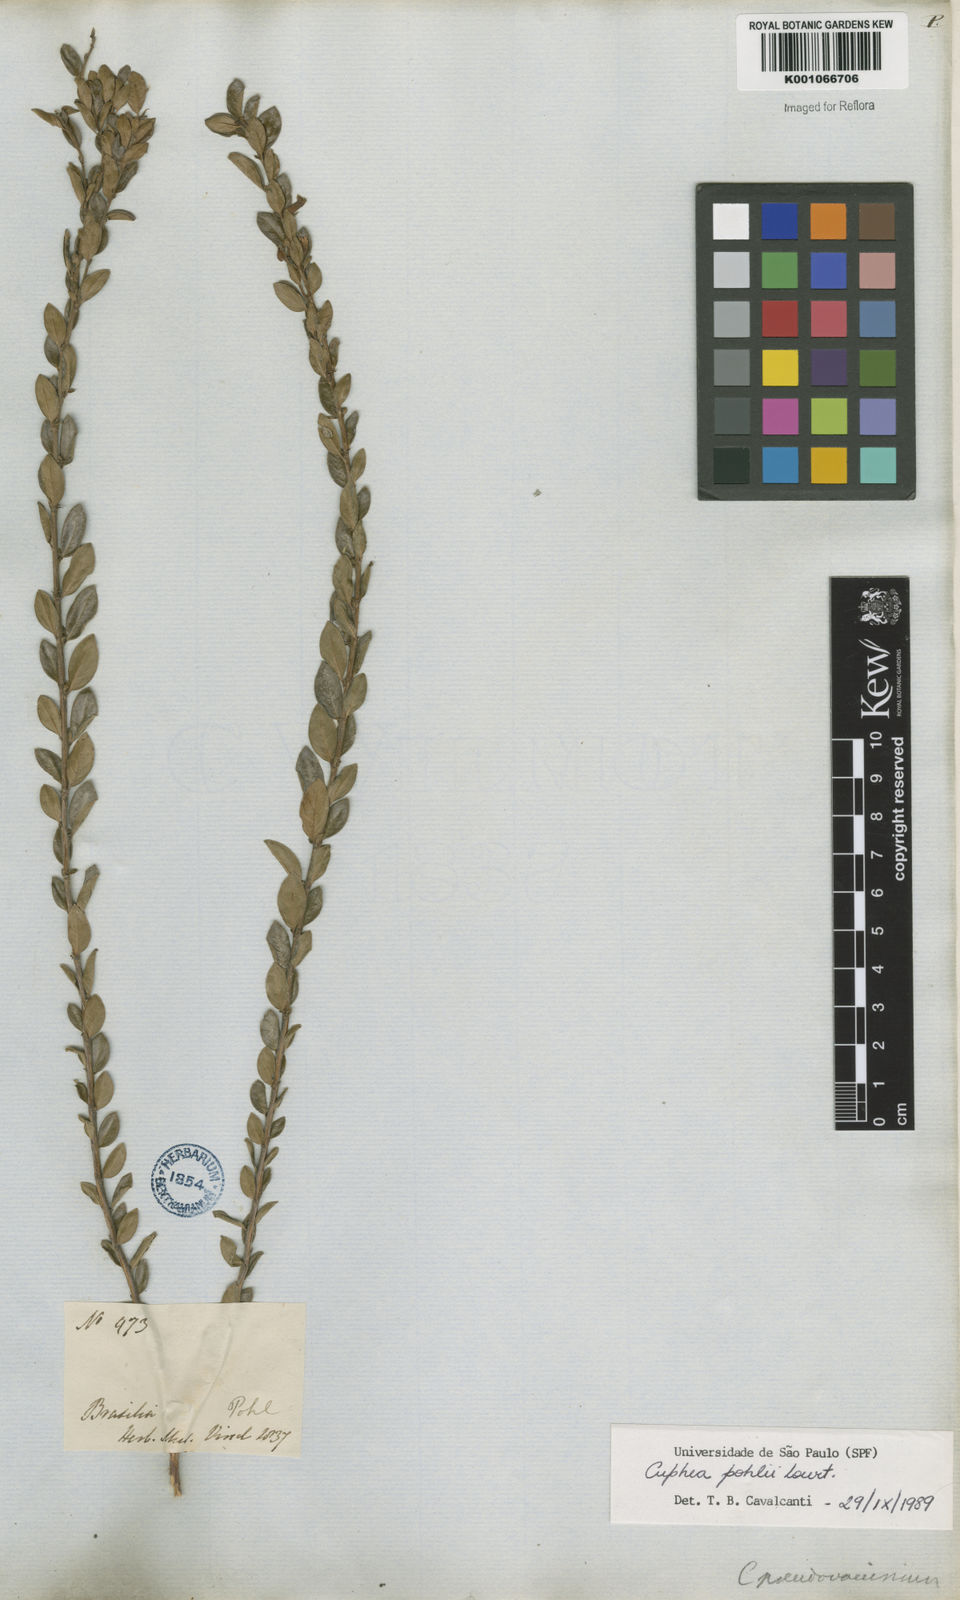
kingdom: Plantae
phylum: Tracheophyta
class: Magnoliopsida
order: Myrtales
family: Lythraceae
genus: Cuphea
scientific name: Cuphea pohlii
